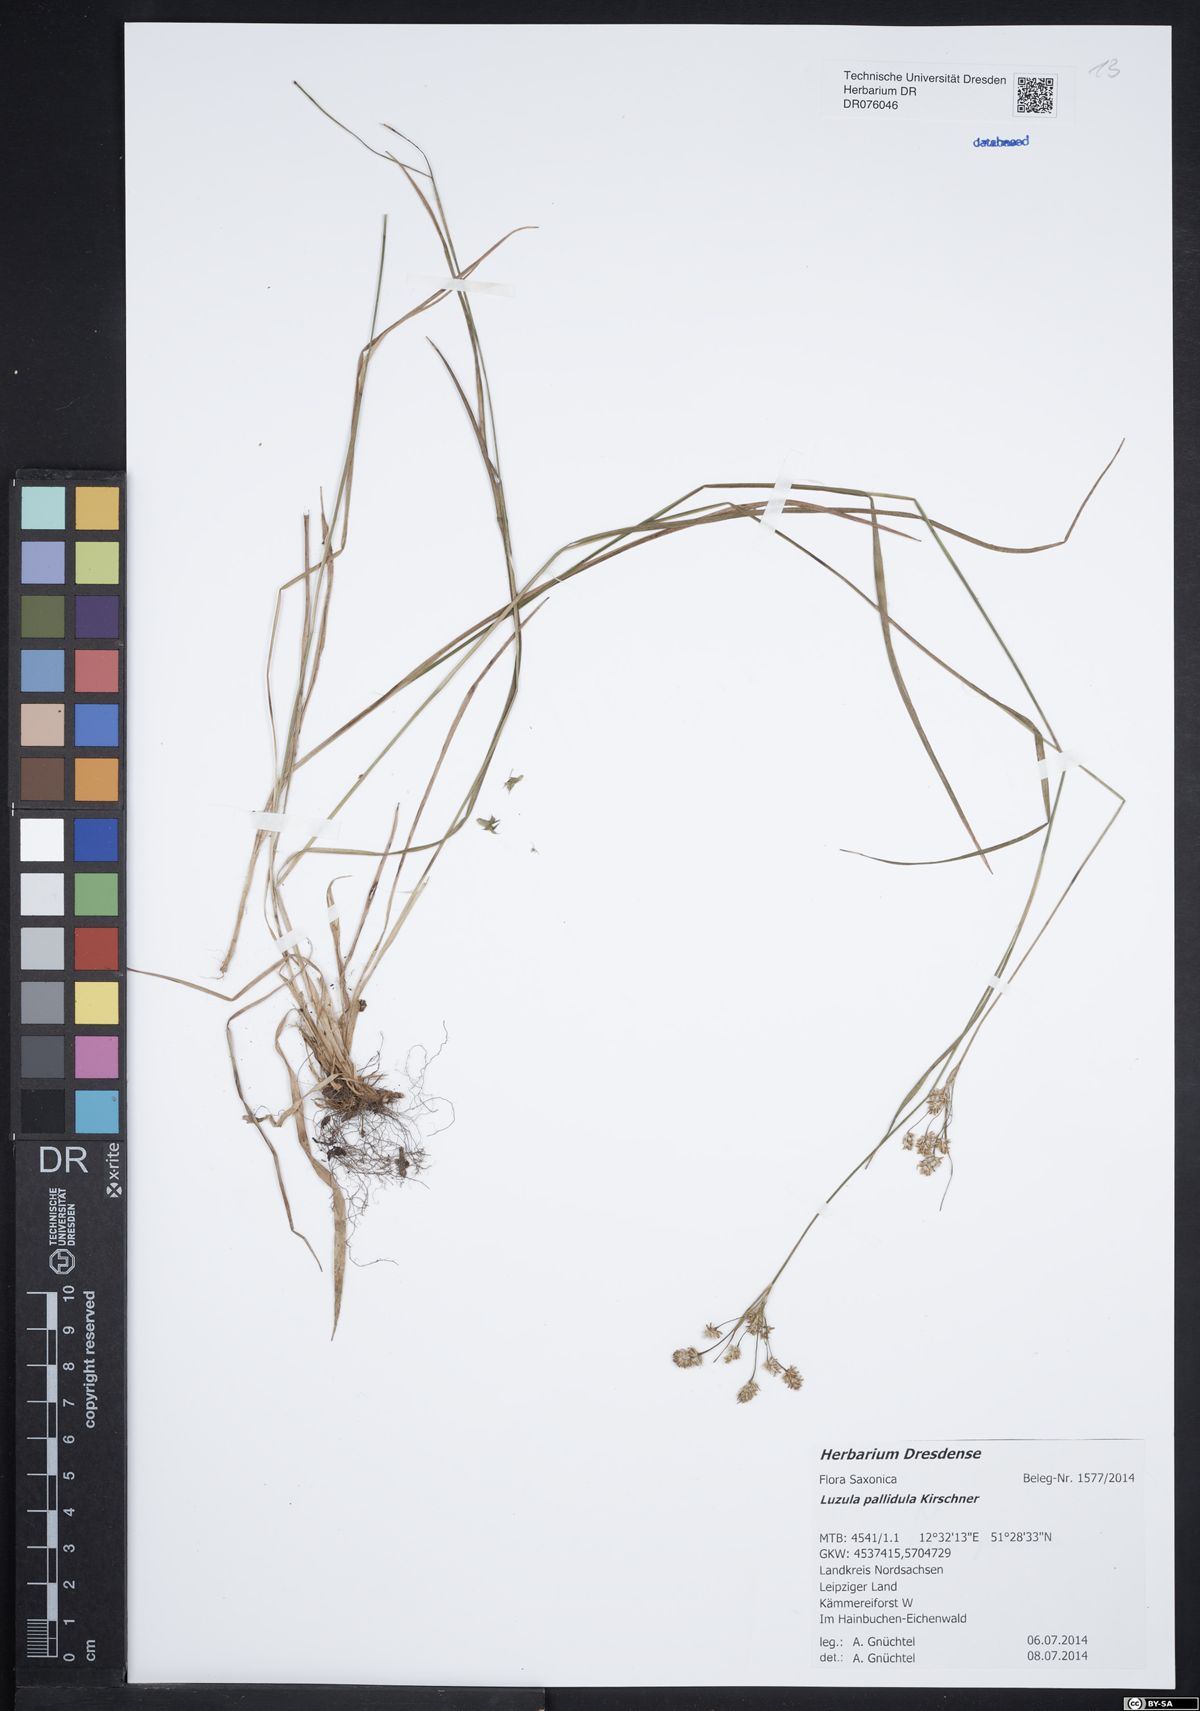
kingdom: Plantae
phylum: Tracheophyta
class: Liliopsida
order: Poales
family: Juncaceae
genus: Luzula
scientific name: Luzula pallescens
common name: Fen wood-rush
